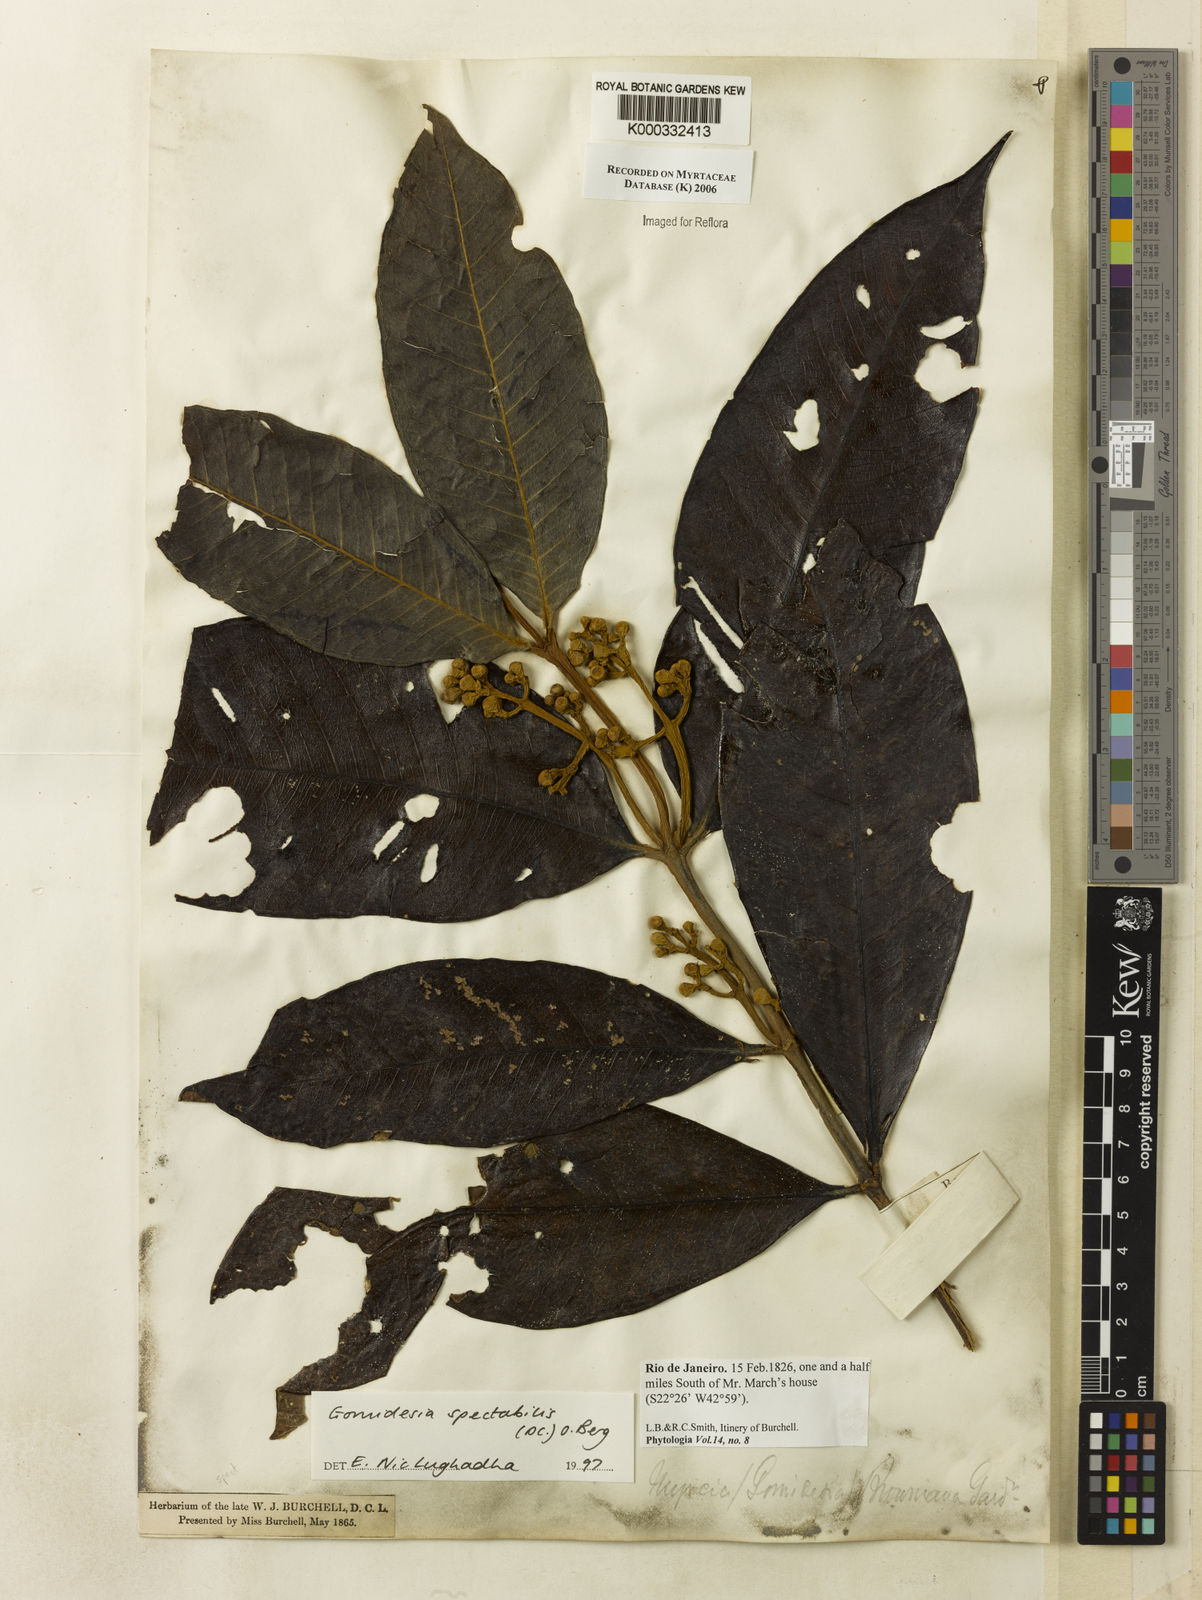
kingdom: Plantae
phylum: Tracheophyta
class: Magnoliopsida
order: Myrtales
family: Myrtaceae
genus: Myrcia
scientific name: Myrcia spectabilis
